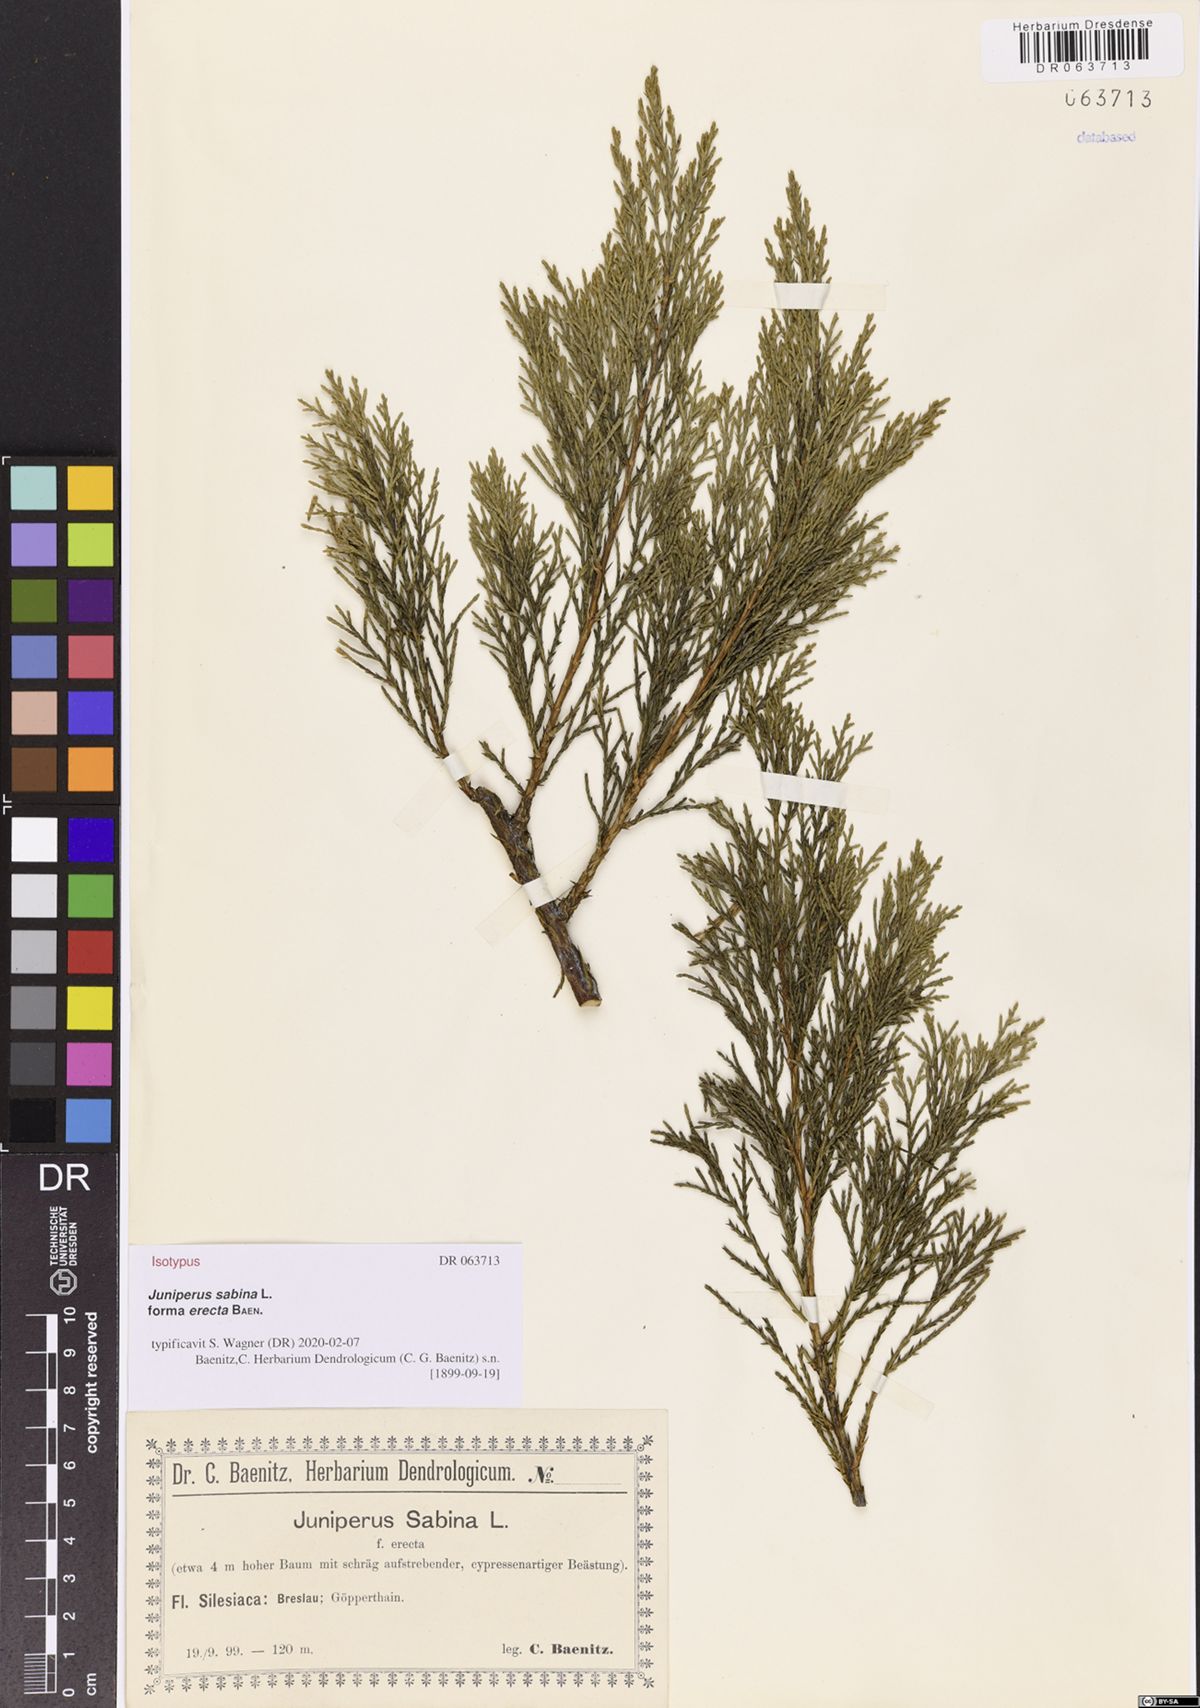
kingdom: Plantae
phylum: Tracheophyta
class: Pinopsida
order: Pinales
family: Cupressaceae
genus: Juniperus
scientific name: Juniperus sabina
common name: Savin
